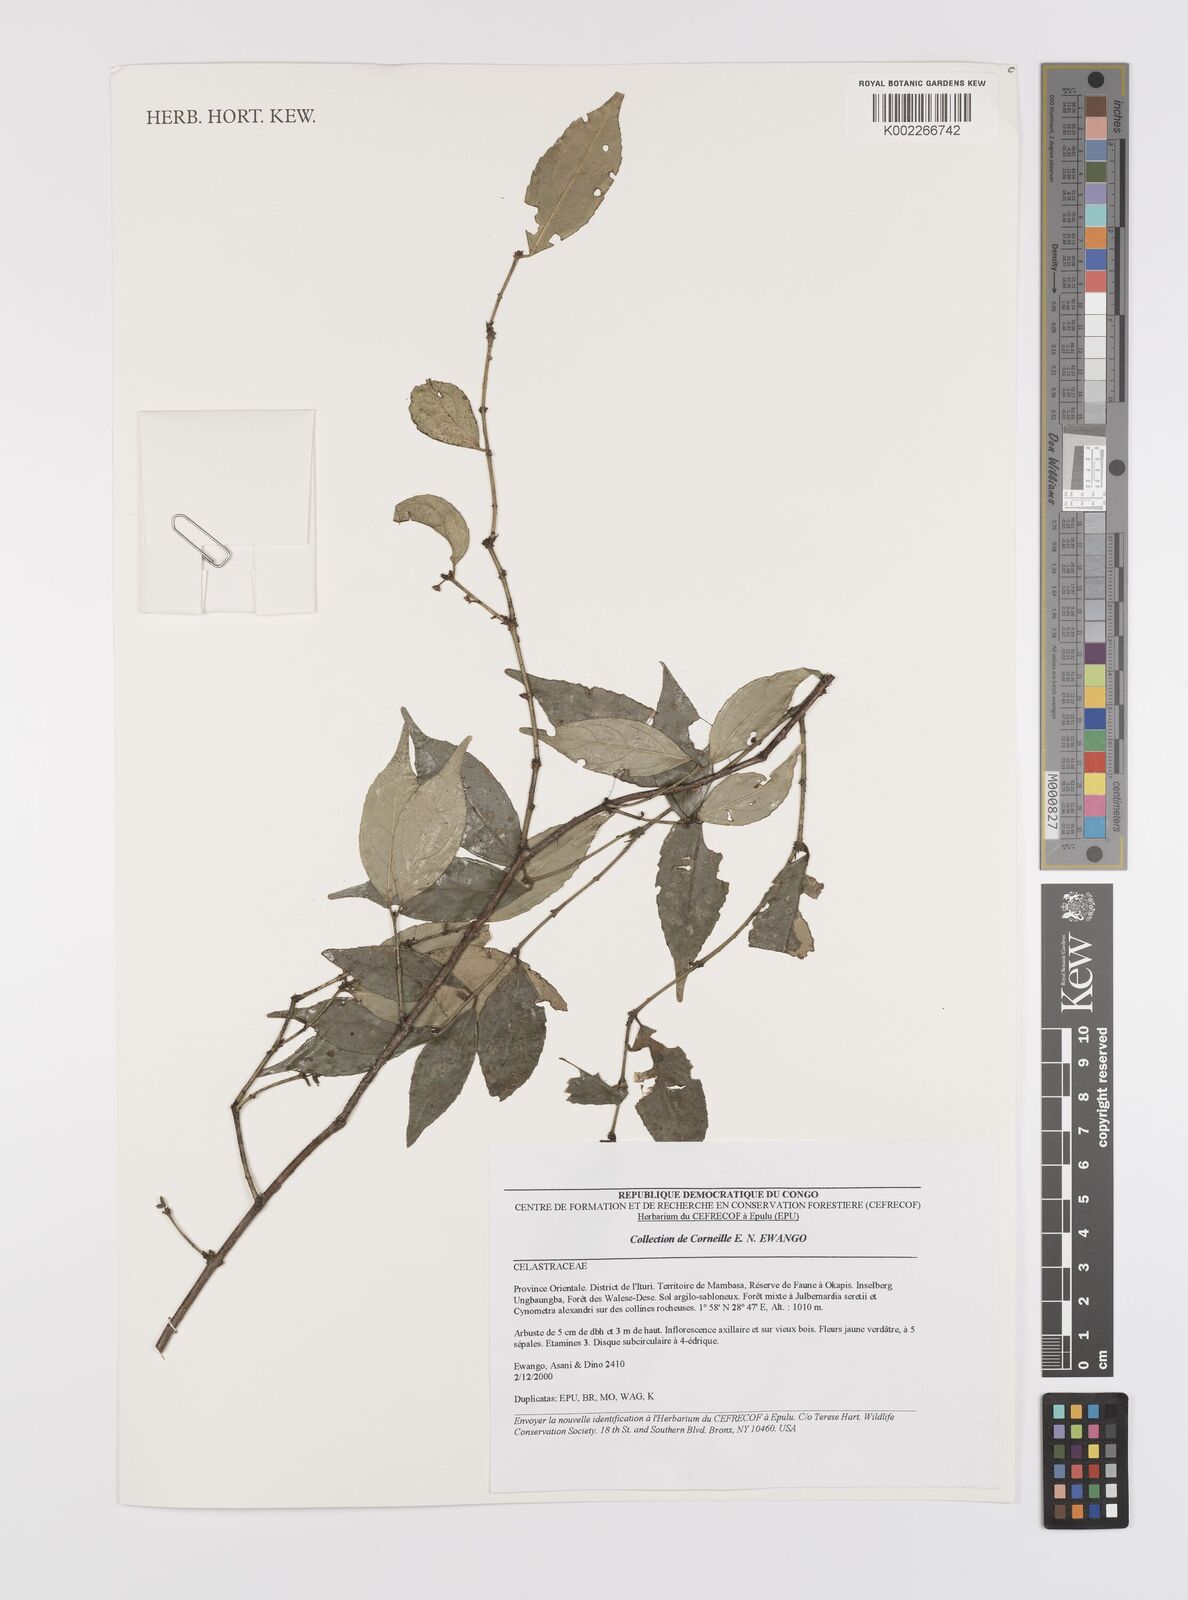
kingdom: Plantae
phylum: Tracheophyta
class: Magnoliopsida
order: Celastrales
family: Celastraceae
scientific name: Celastraceae
